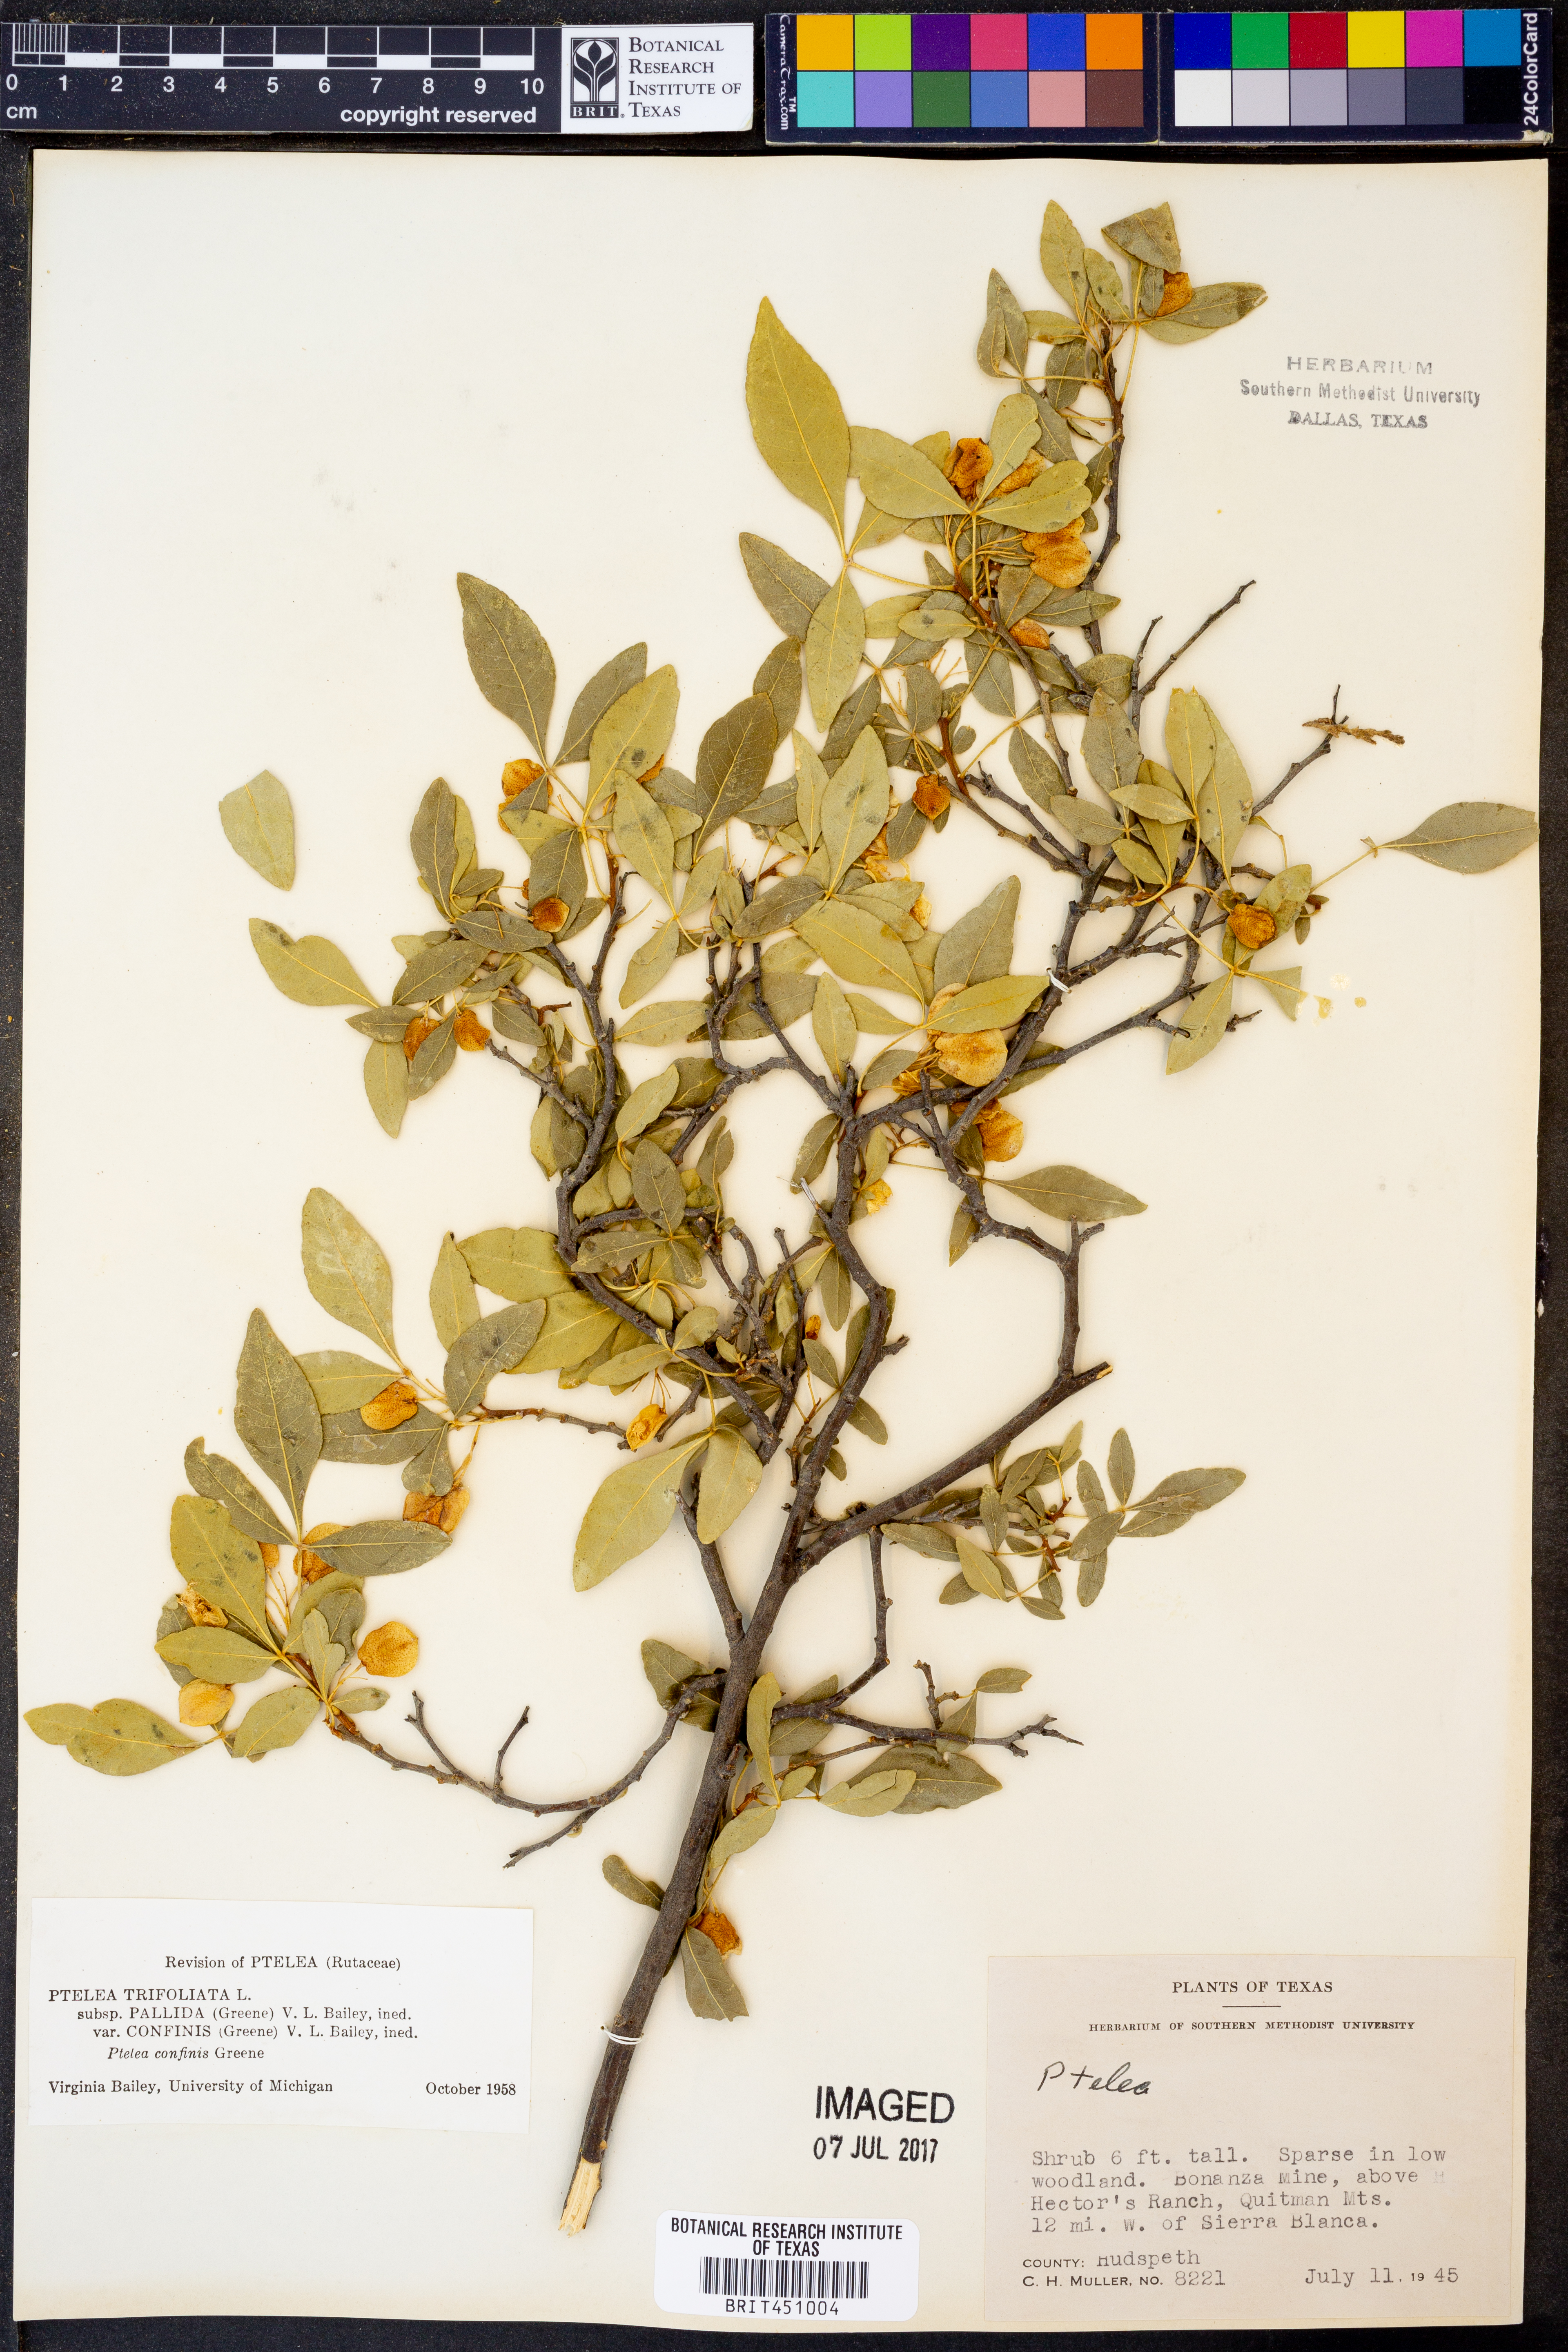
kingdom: Plantae
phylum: Tracheophyta
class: Magnoliopsida
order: Sapindales
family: Rutaceae
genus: Ptelea
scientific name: Ptelea trifoliata
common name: Common hop-tree
